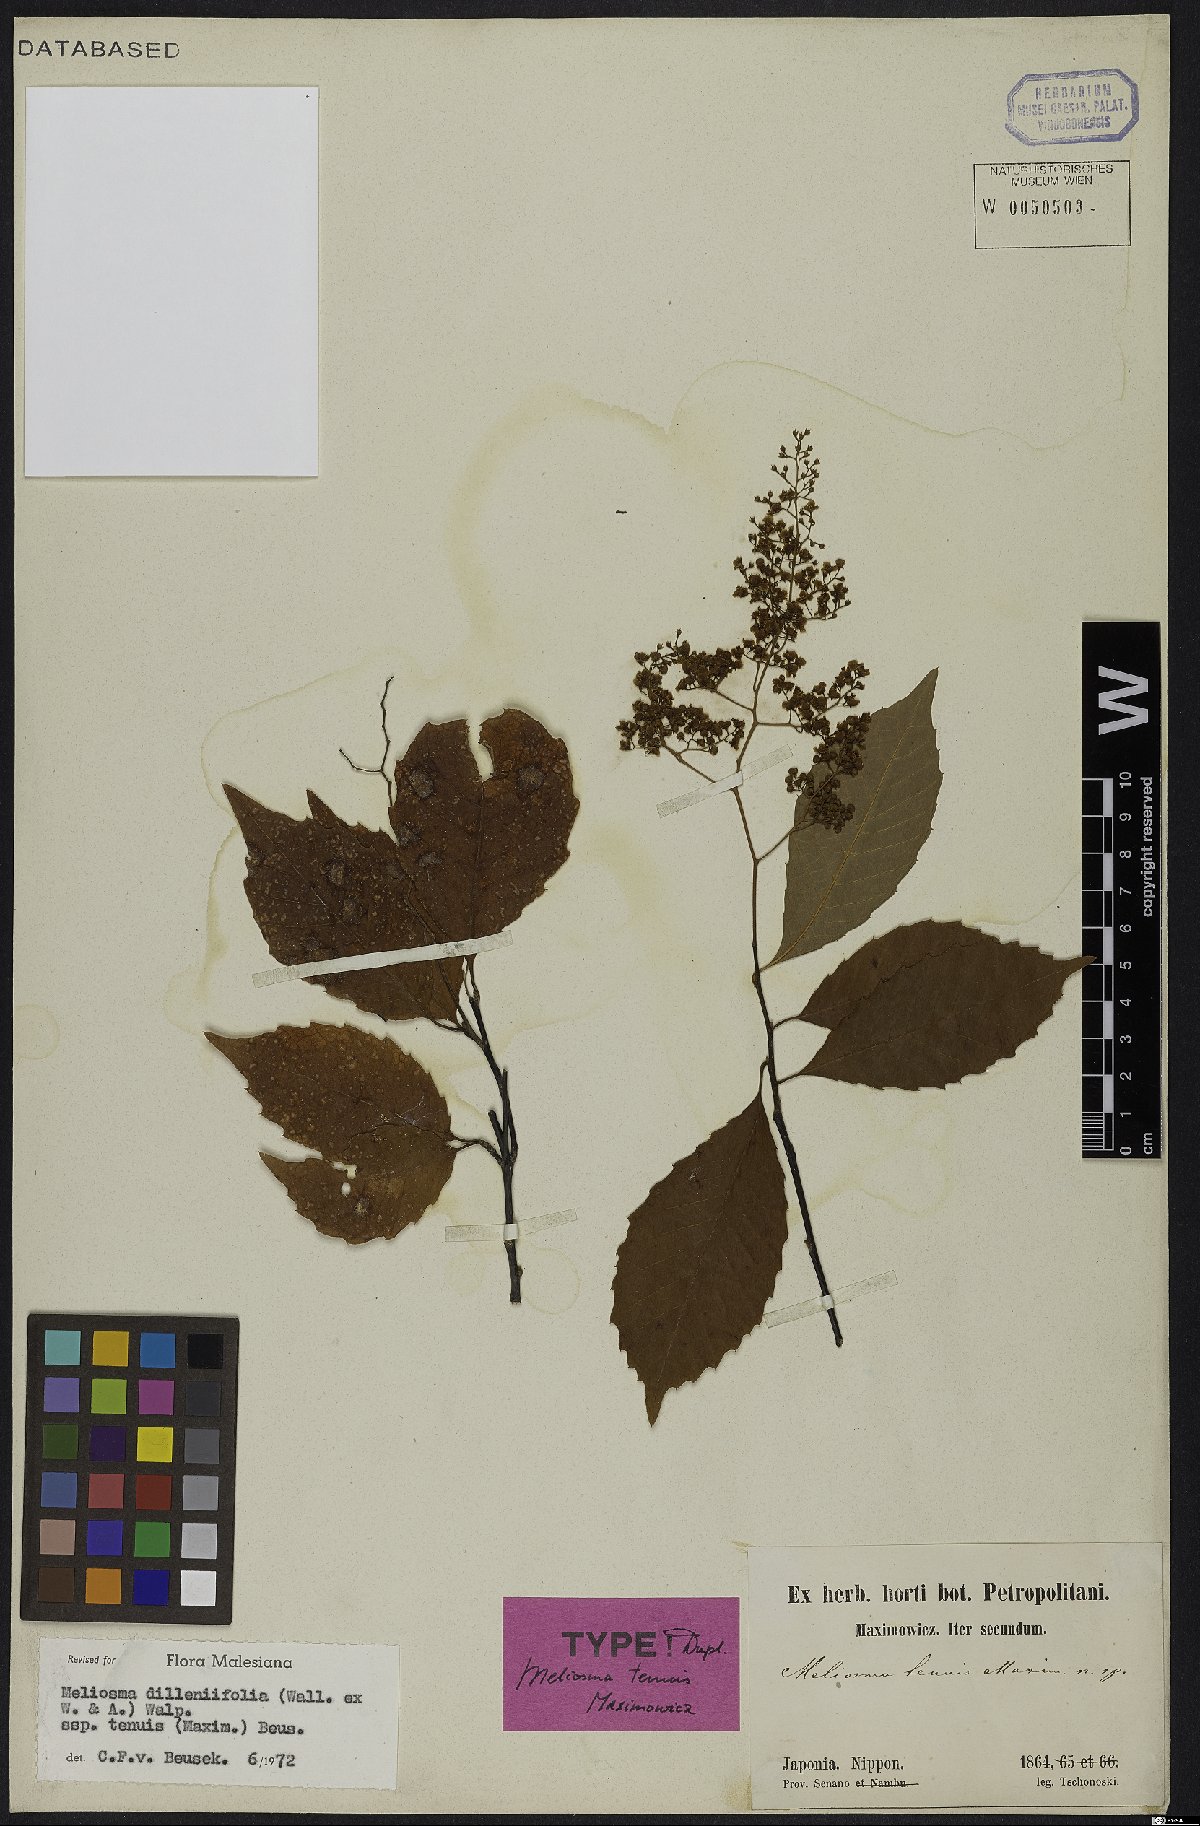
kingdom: Plantae
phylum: Tracheophyta
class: Magnoliopsida
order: Proteales
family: Sabiaceae
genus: Meliosma
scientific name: Meliosma tenuis
